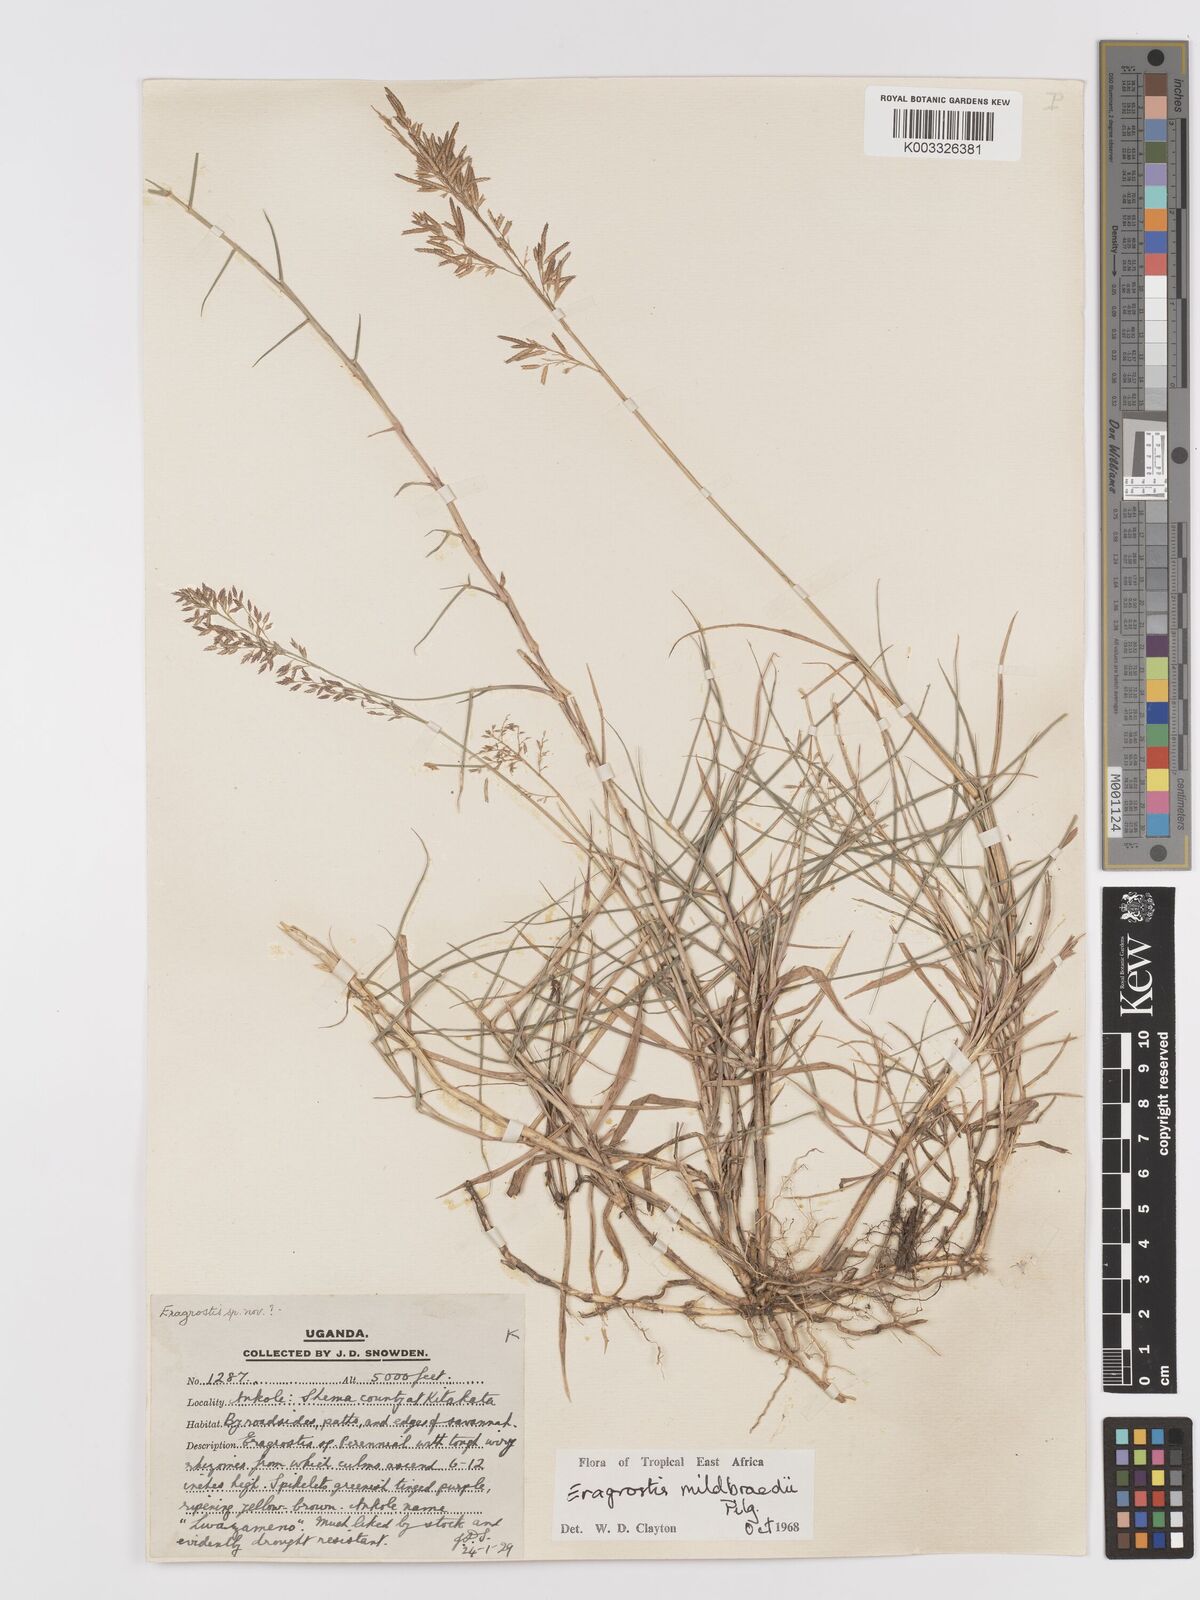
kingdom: Plantae
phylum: Tracheophyta
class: Liliopsida
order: Poales
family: Poaceae
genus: Eragrostis
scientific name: Eragrostis mildbraedii
